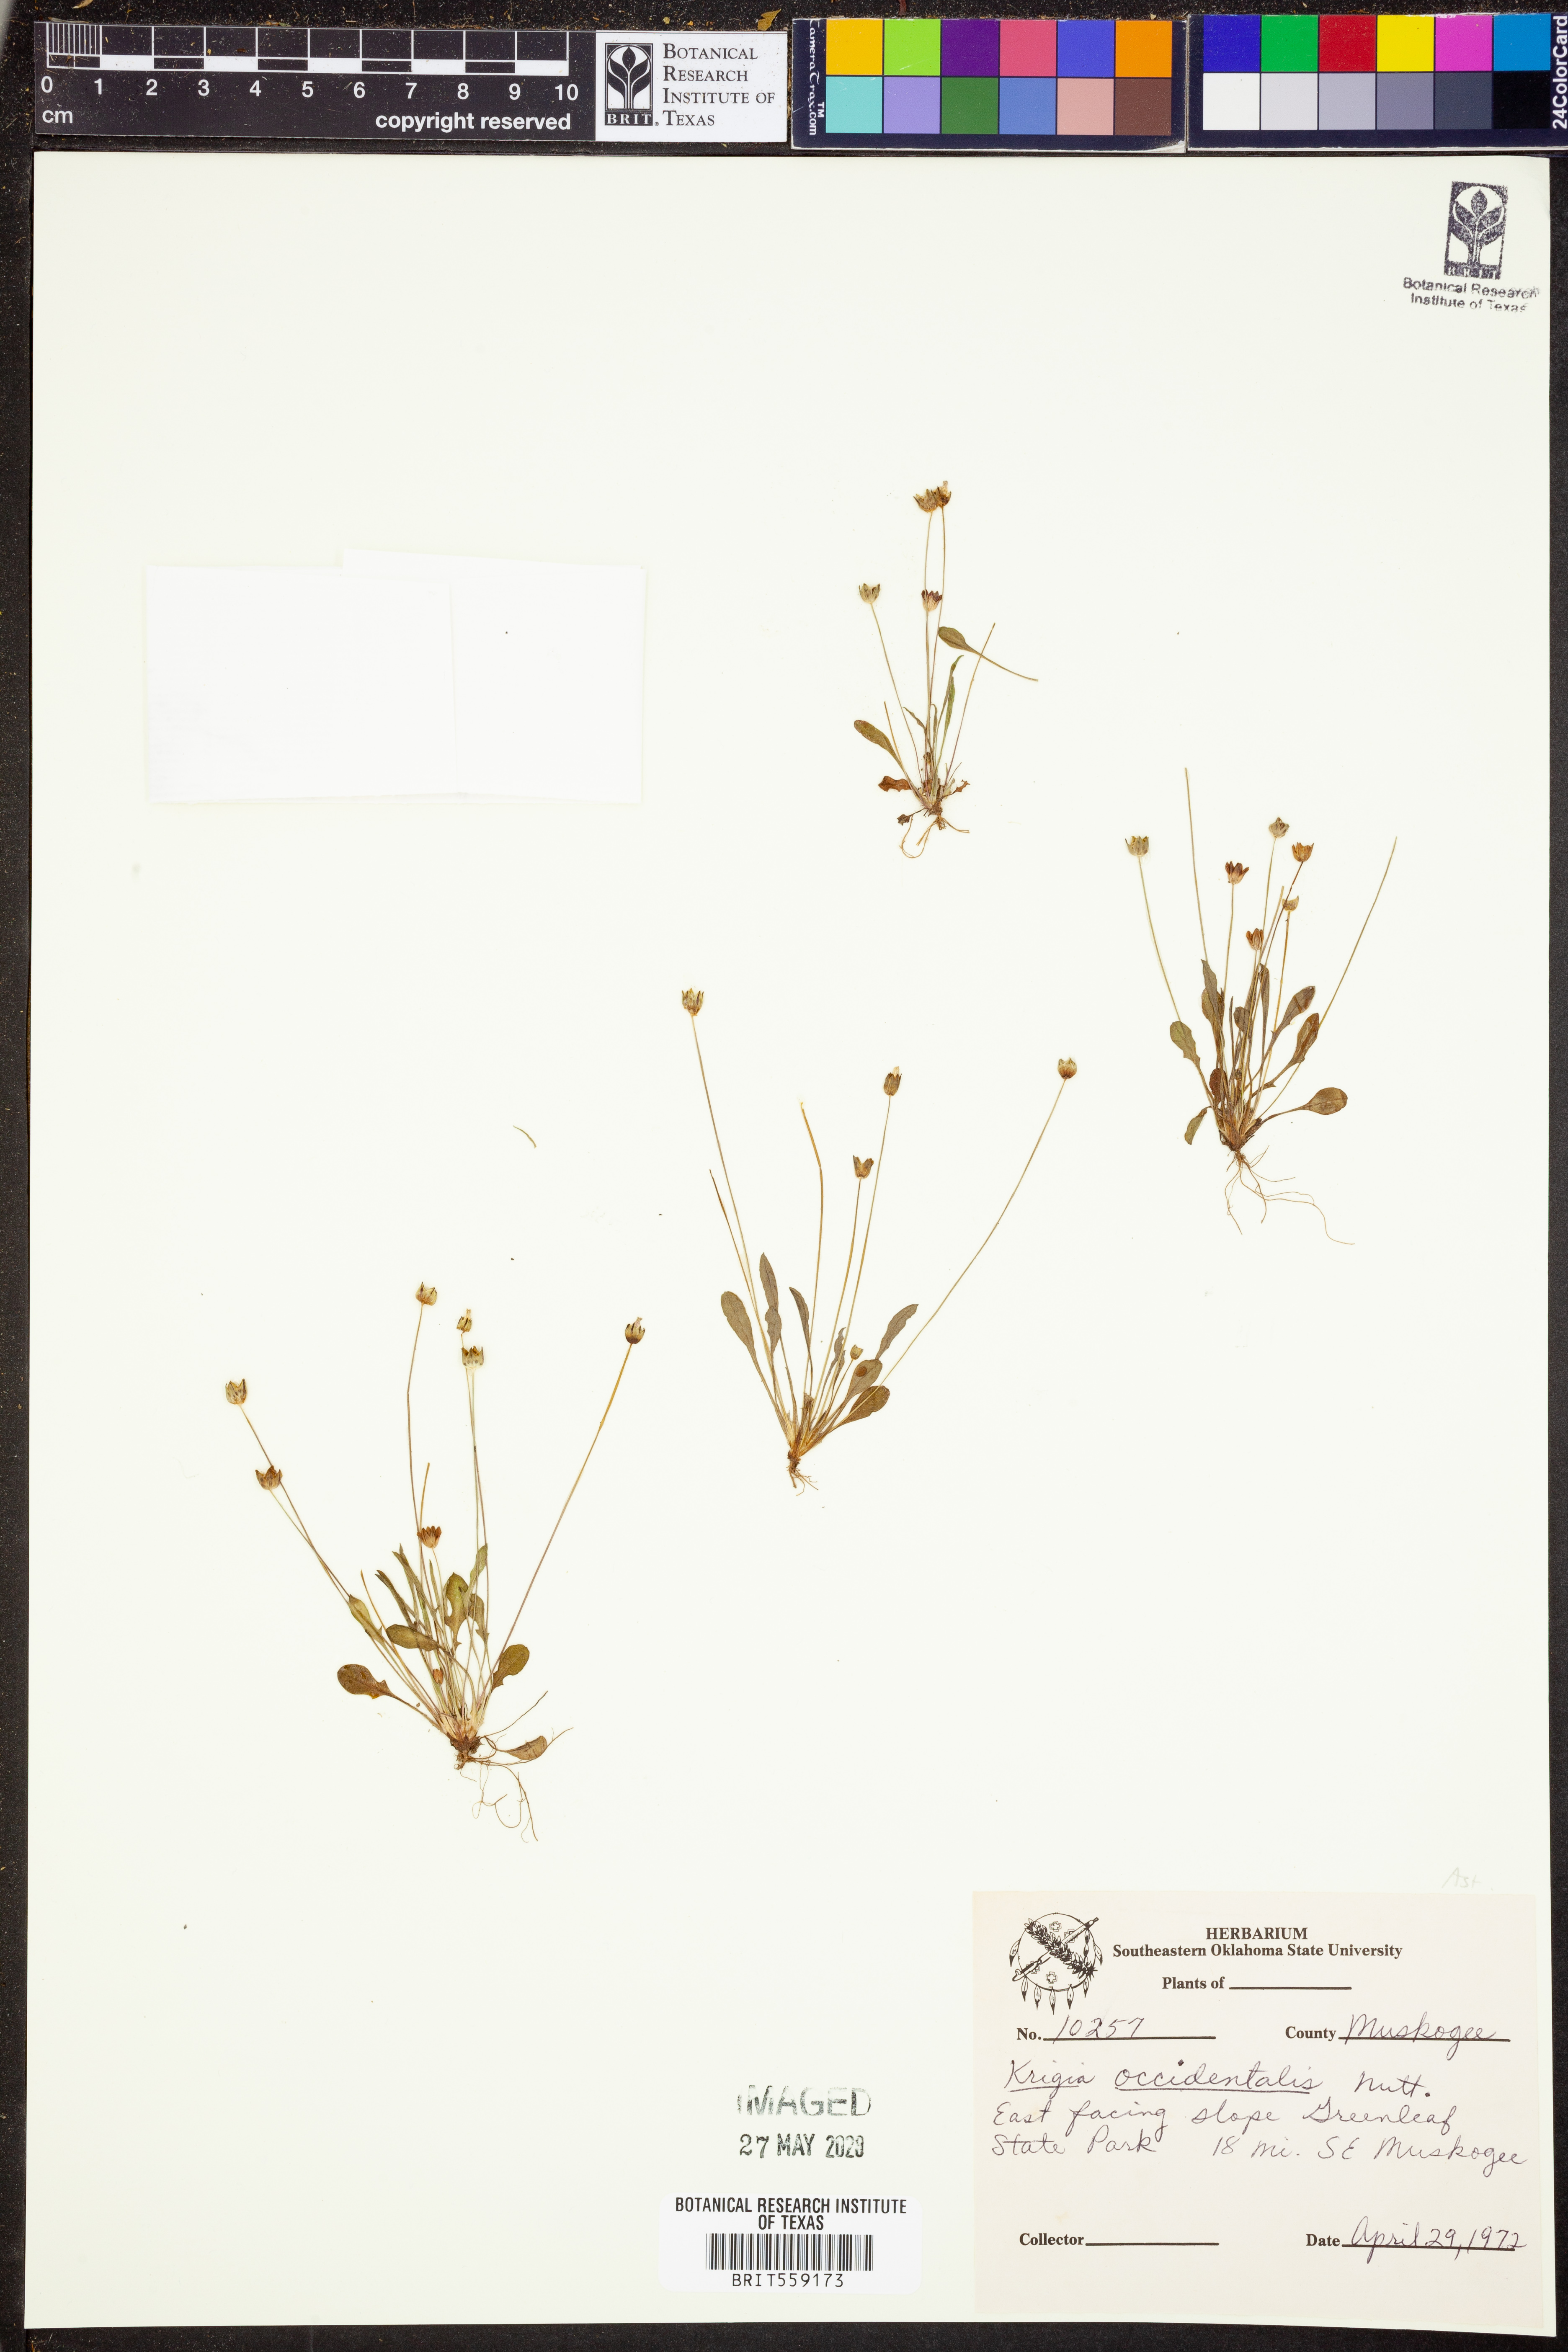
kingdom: Plantae
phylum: Tracheophyta
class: Magnoliopsida
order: Asterales
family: Asteraceae
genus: Krigia
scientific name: Krigia occidentalis
